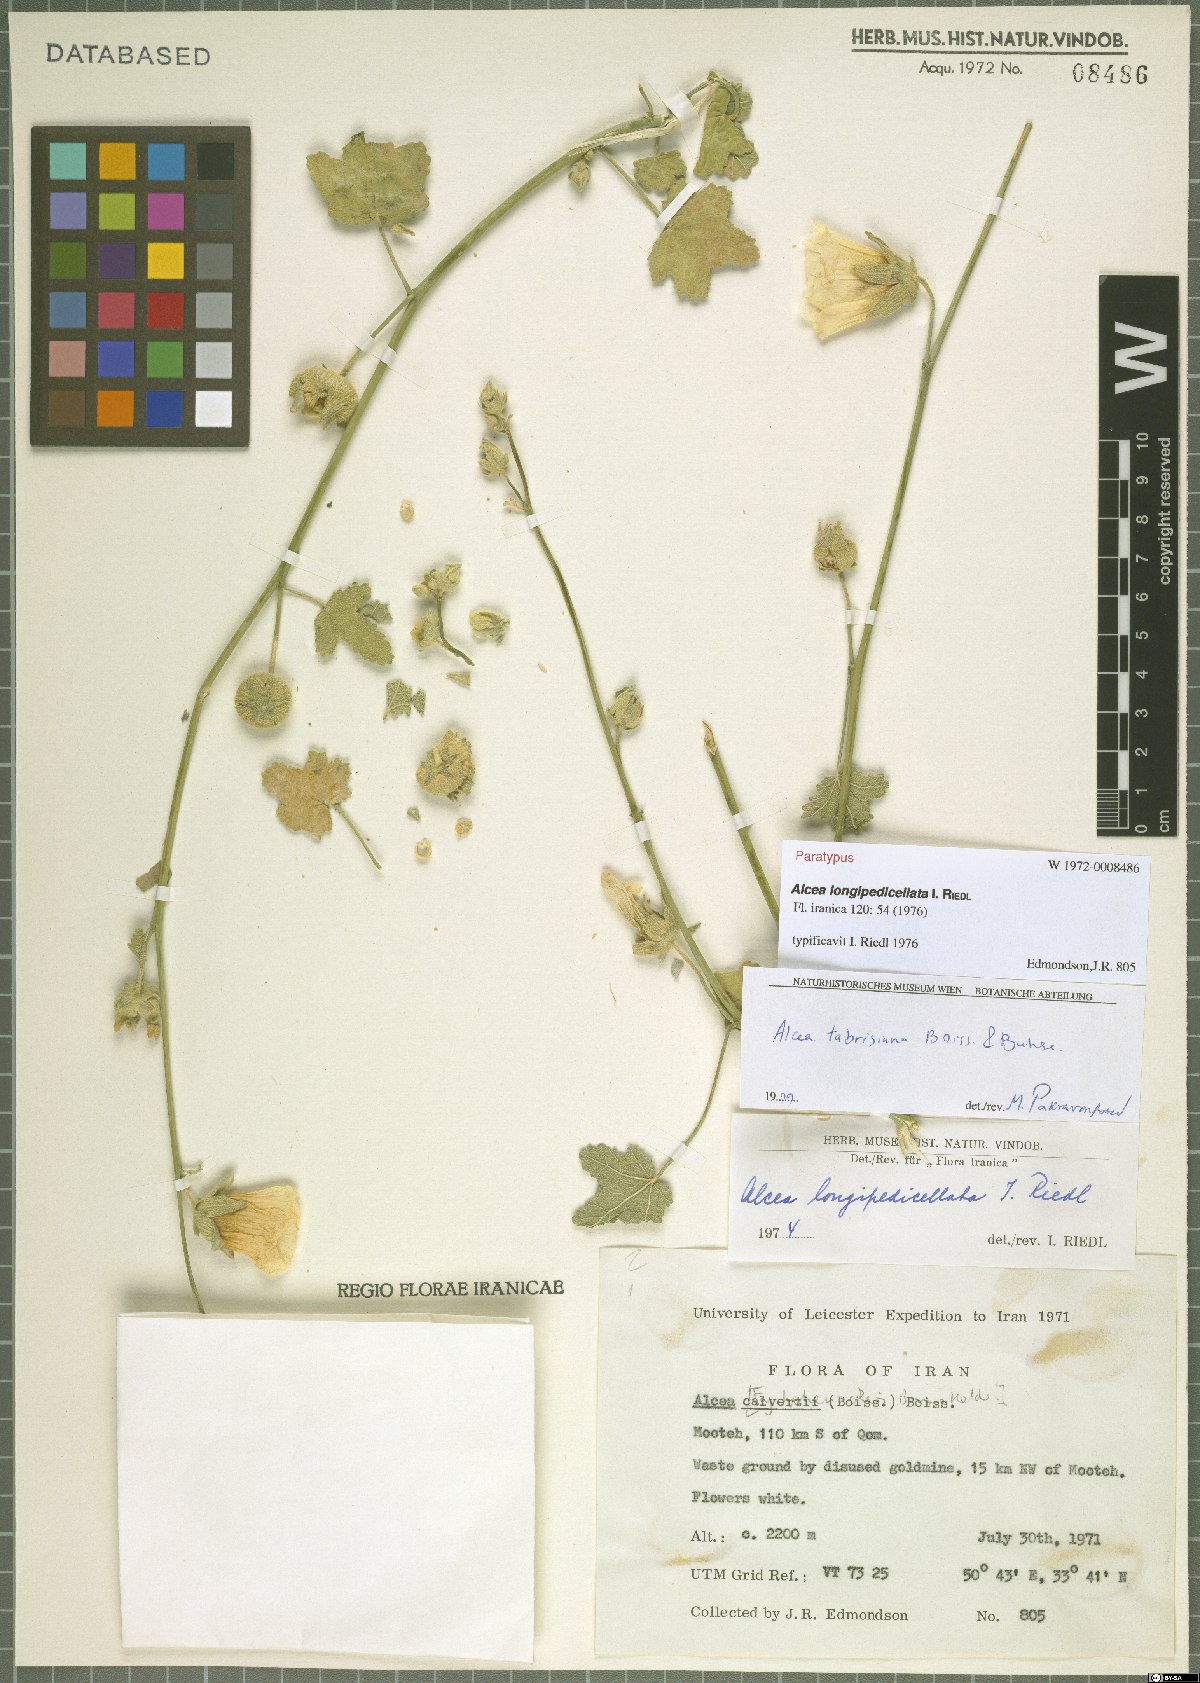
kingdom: Plantae
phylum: Tracheophyta
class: Magnoliopsida
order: Malvales
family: Malvaceae
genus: Alcea
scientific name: Alcea tabrisiana
